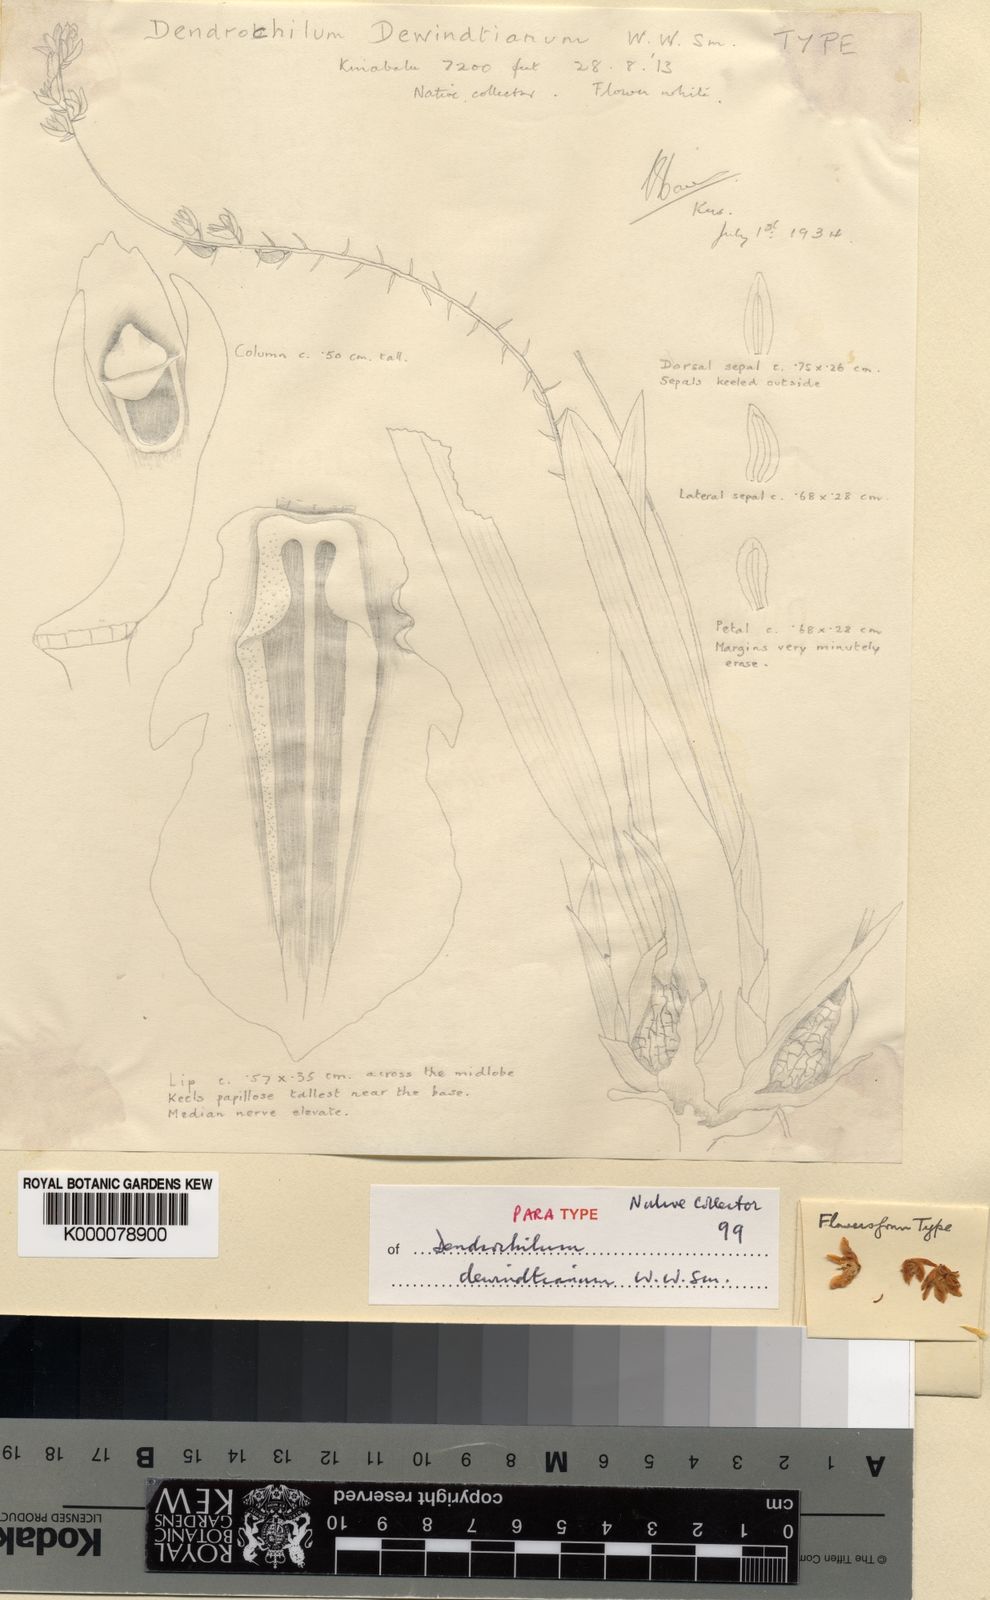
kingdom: Plantae
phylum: Tracheophyta
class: Liliopsida
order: Asparagales
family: Orchidaceae
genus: Coelogyne
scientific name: Coelogyne dewindtiana
